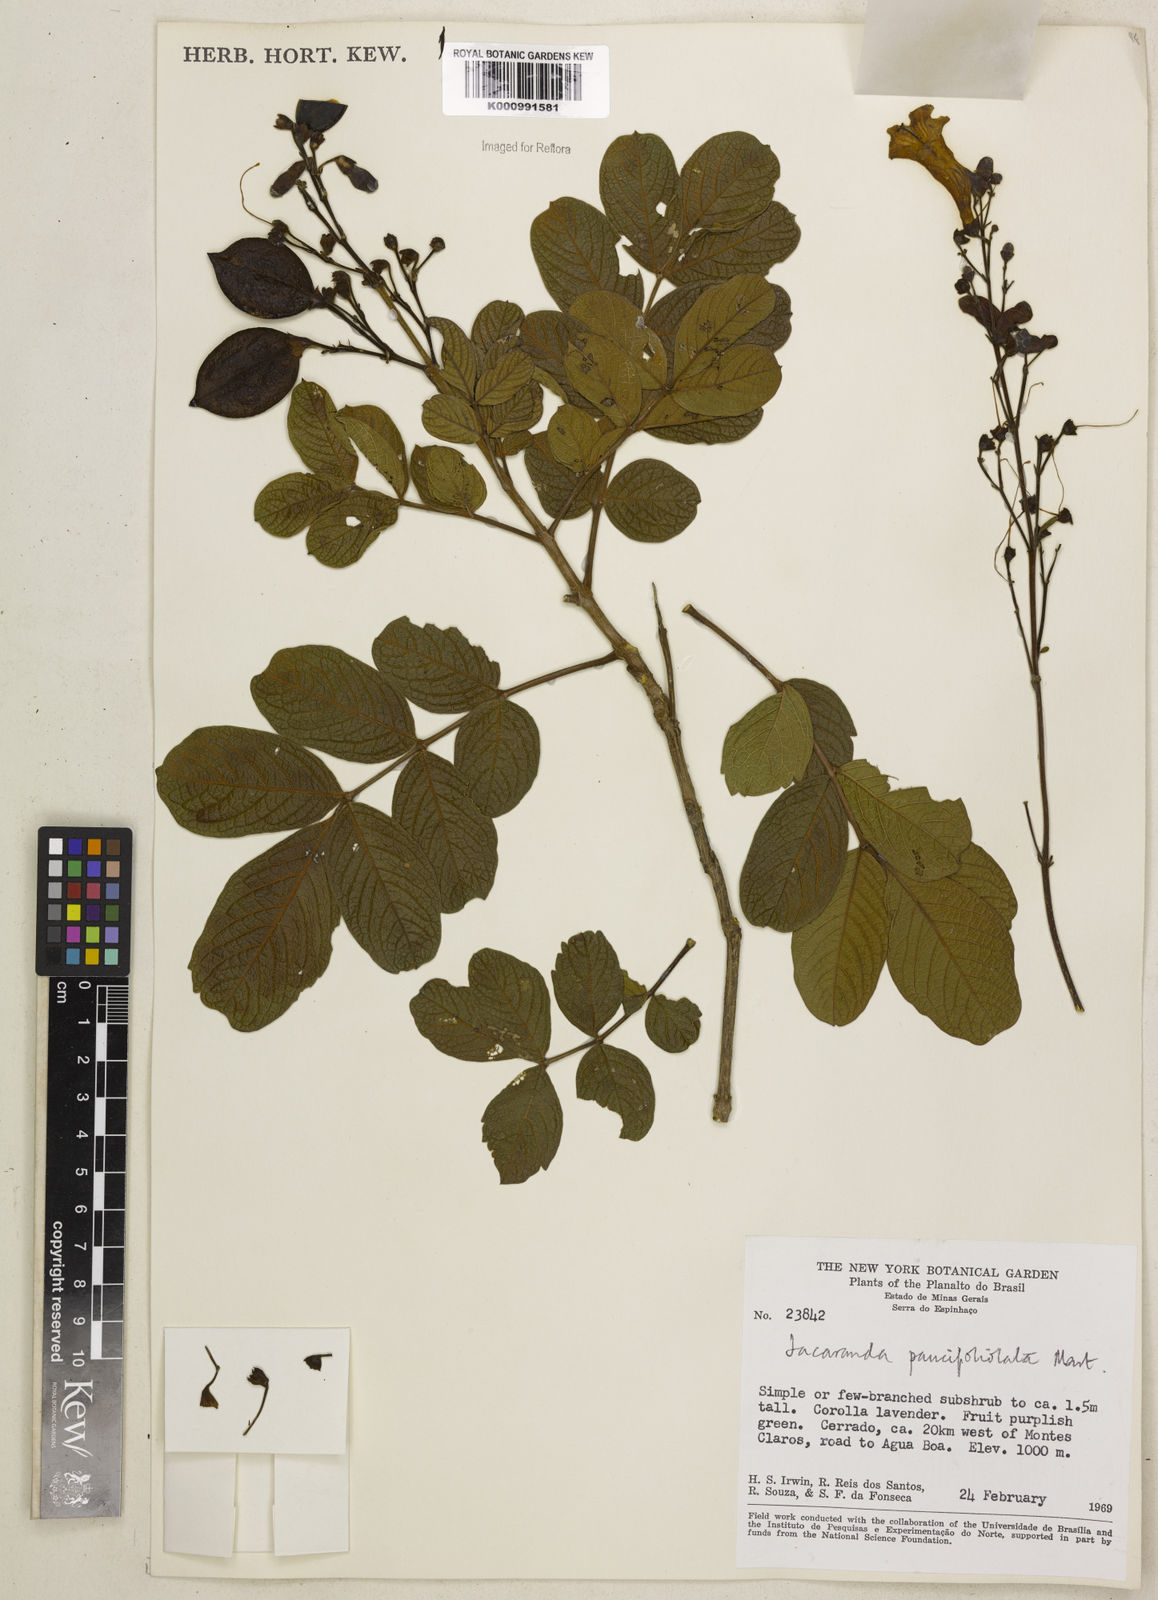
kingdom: Plantae
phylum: Tracheophyta
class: Magnoliopsida
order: Lamiales
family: Bignoniaceae
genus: Jacaranda
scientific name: Jacaranda
